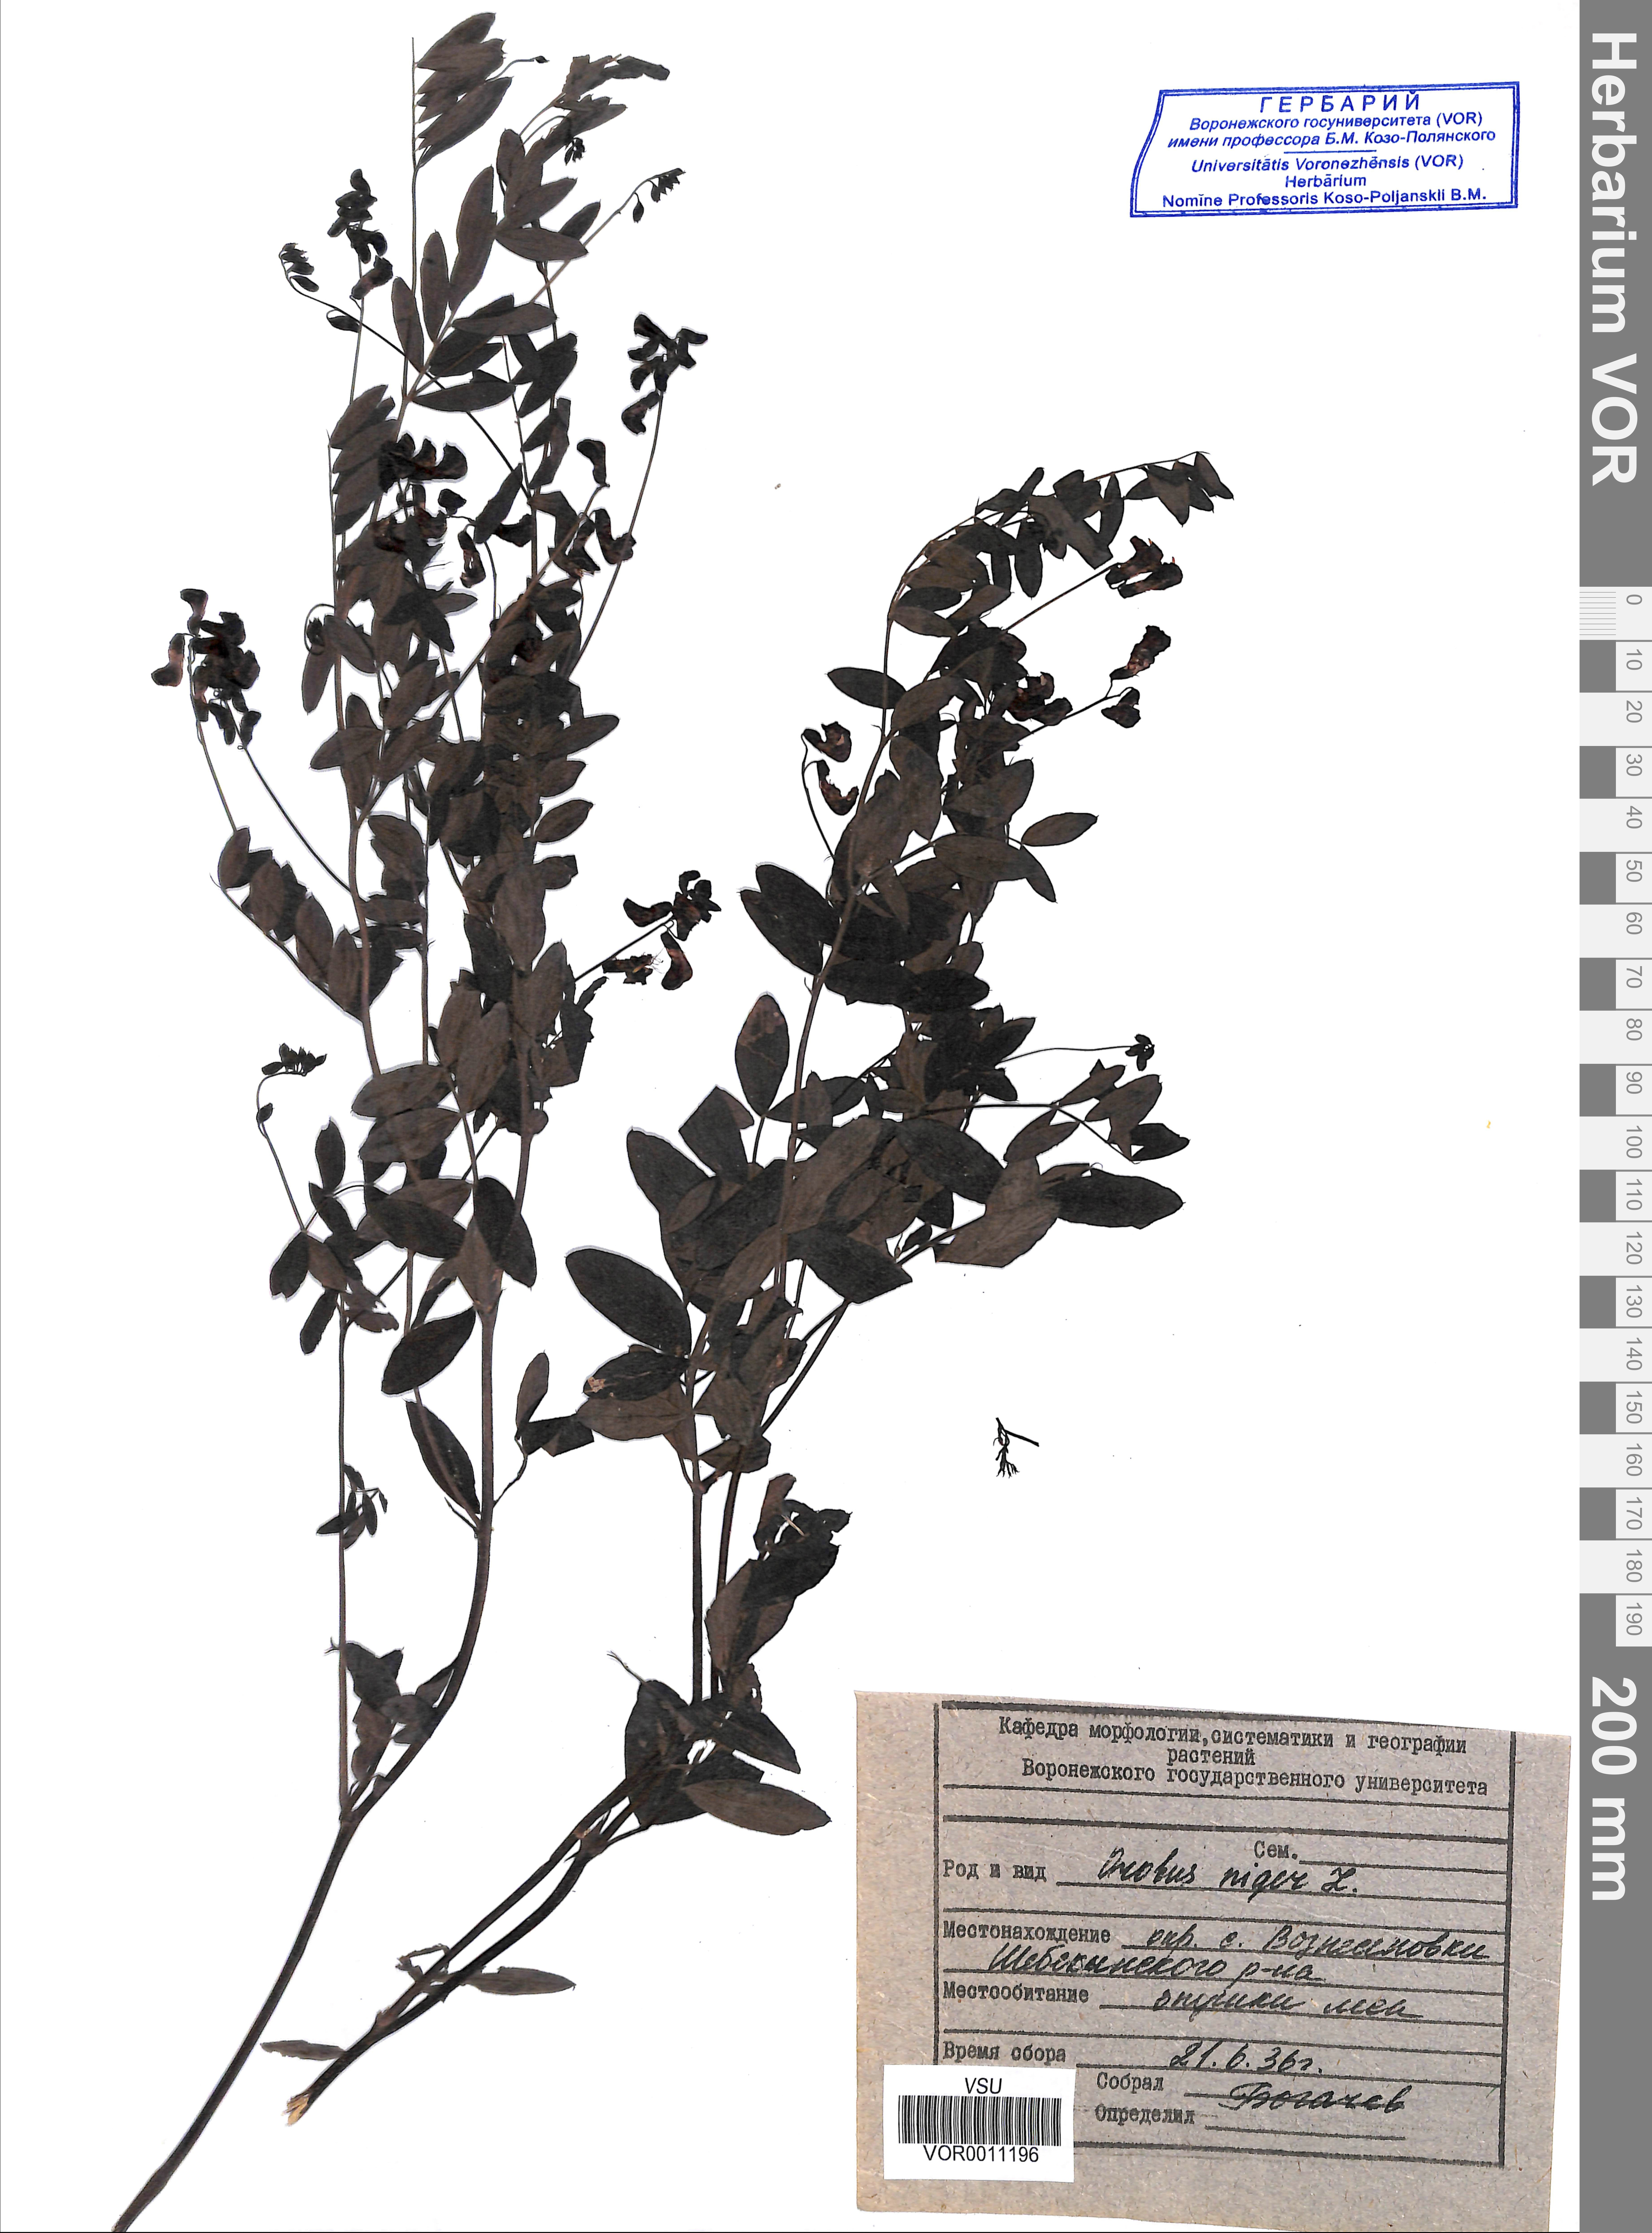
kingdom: Plantae
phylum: Tracheophyta
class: Magnoliopsida
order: Fabales
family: Fabaceae
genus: Lathyrus
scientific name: Lathyrus niger
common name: Black pea
